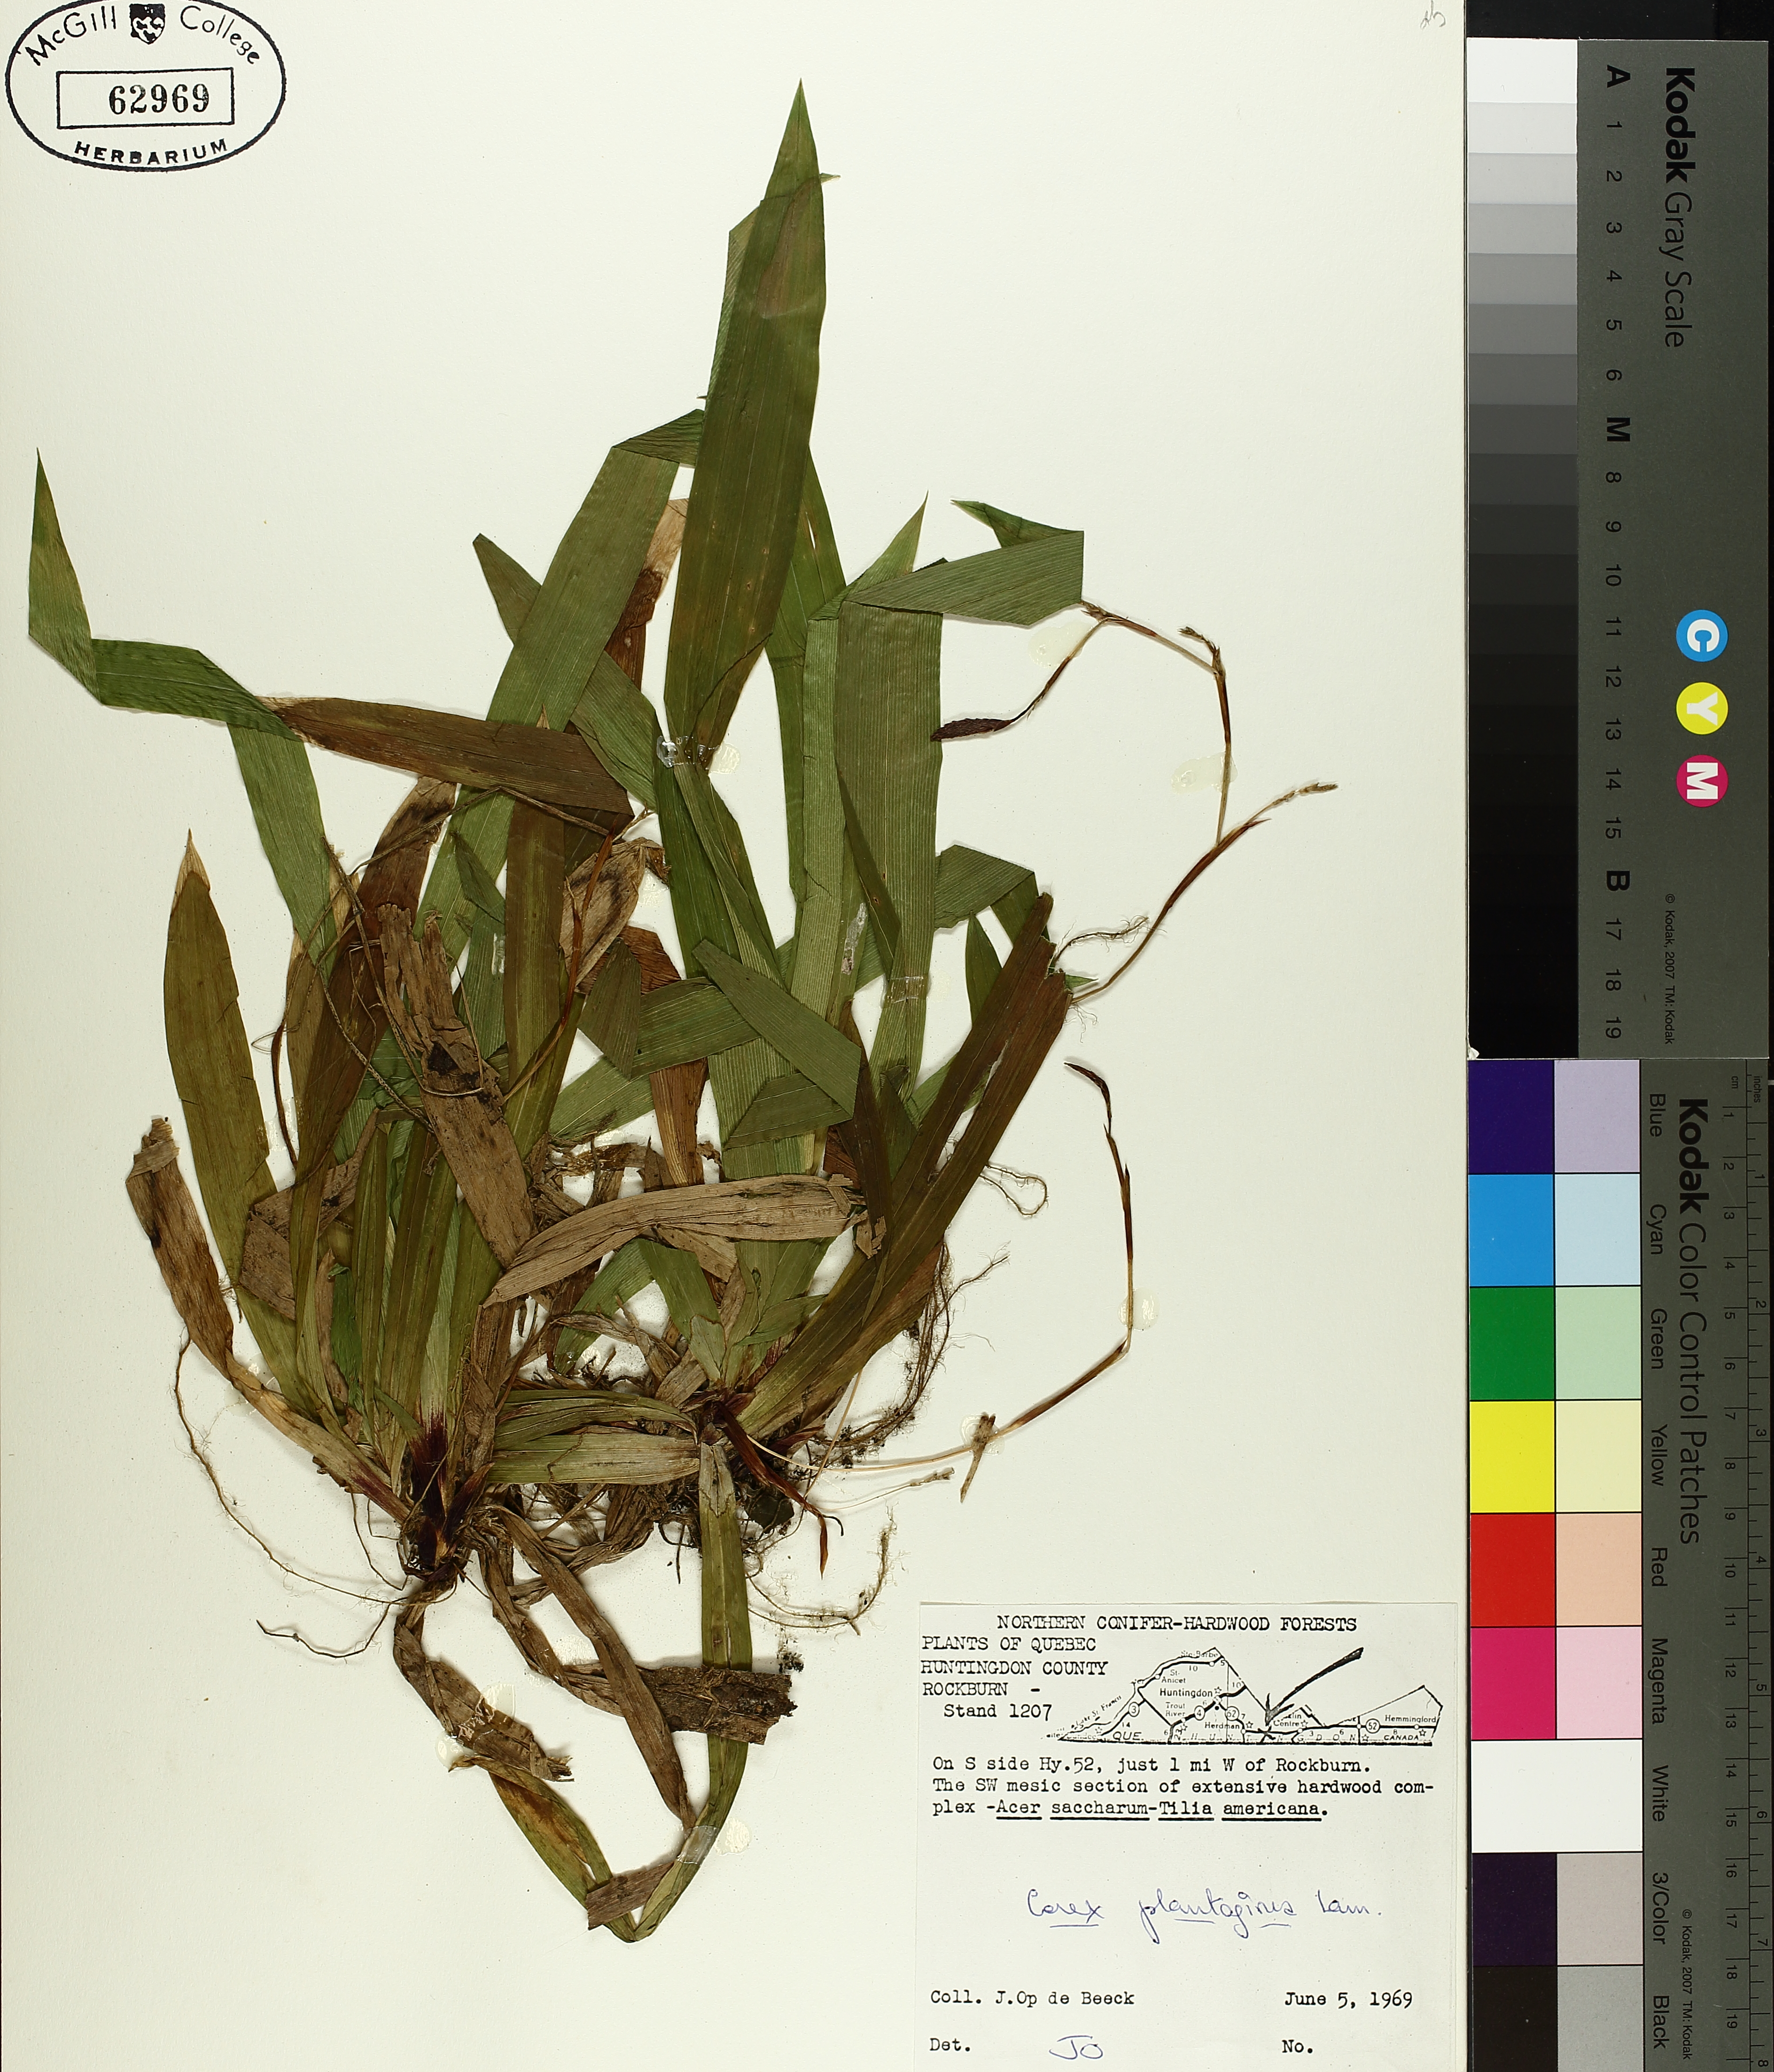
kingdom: Plantae
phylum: Tracheophyta
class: Liliopsida
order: Poales
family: Cyperaceae
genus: Carex
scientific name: Carex plantaginea
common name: Plantain-leaved sedge
